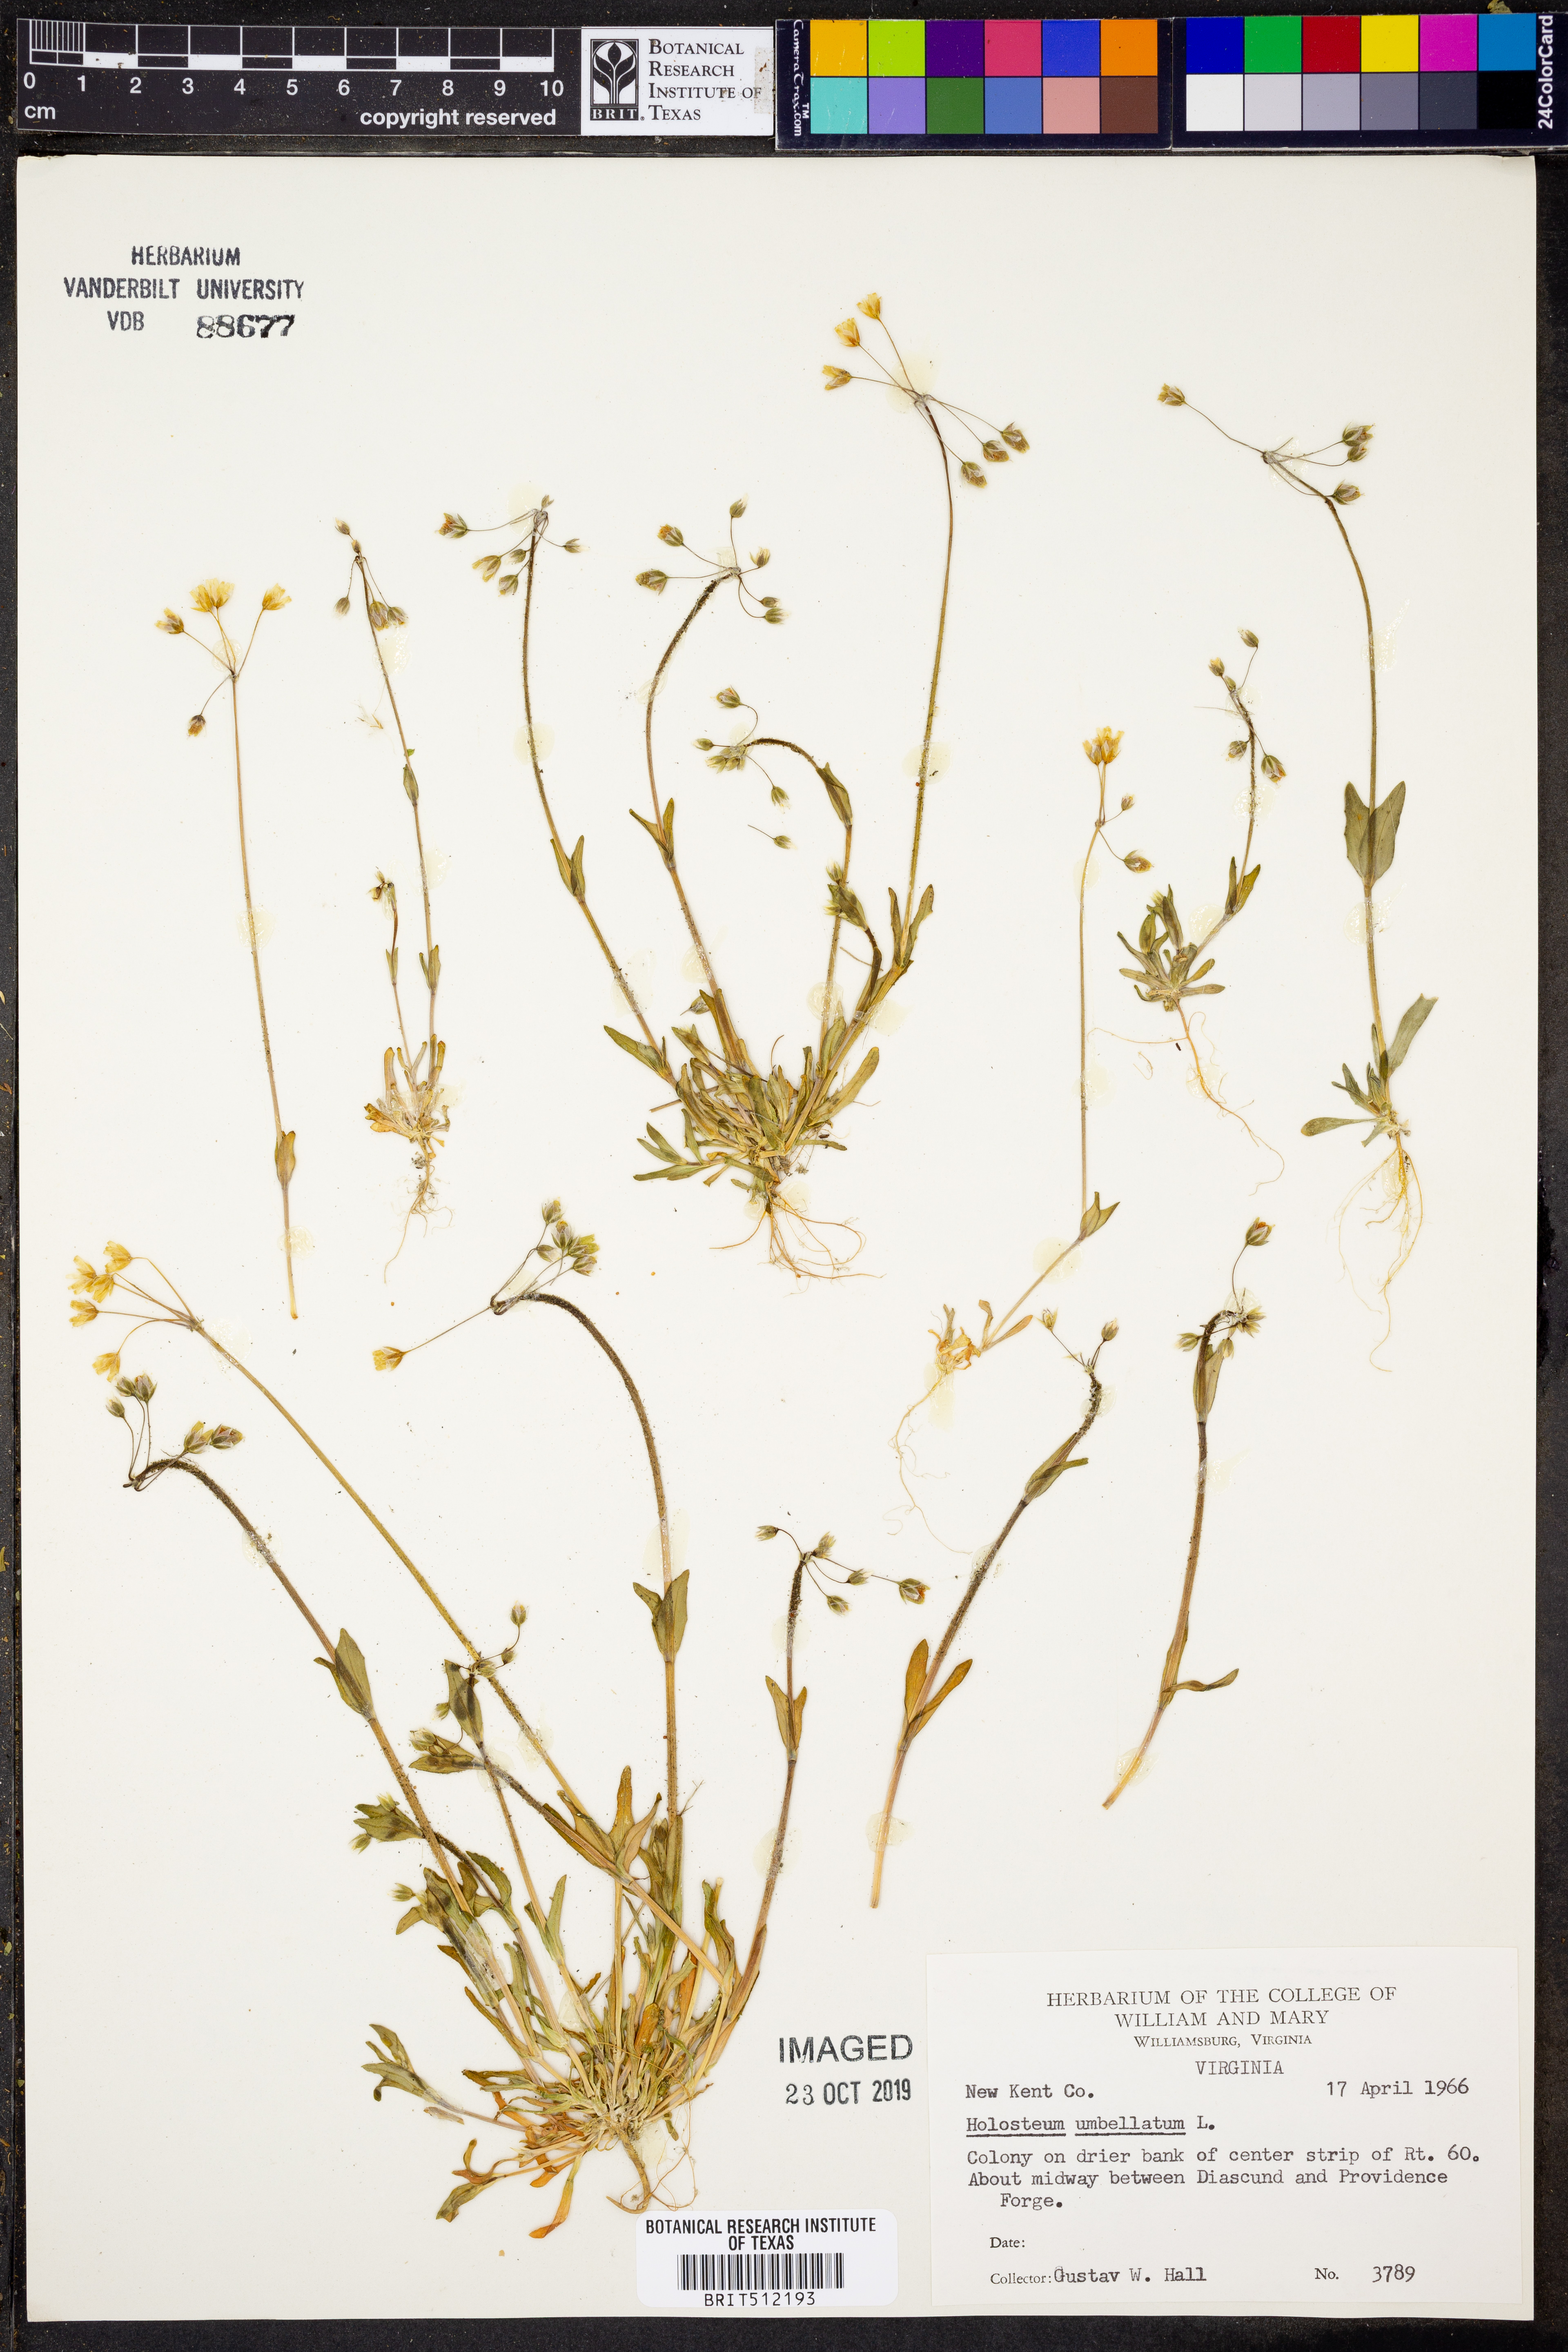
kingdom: Plantae
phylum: Tracheophyta
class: Magnoliopsida
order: Caryophyllales
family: Caryophyllaceae
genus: Holosteum
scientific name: Holosteum umbellatum
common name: Jagged chickweed
